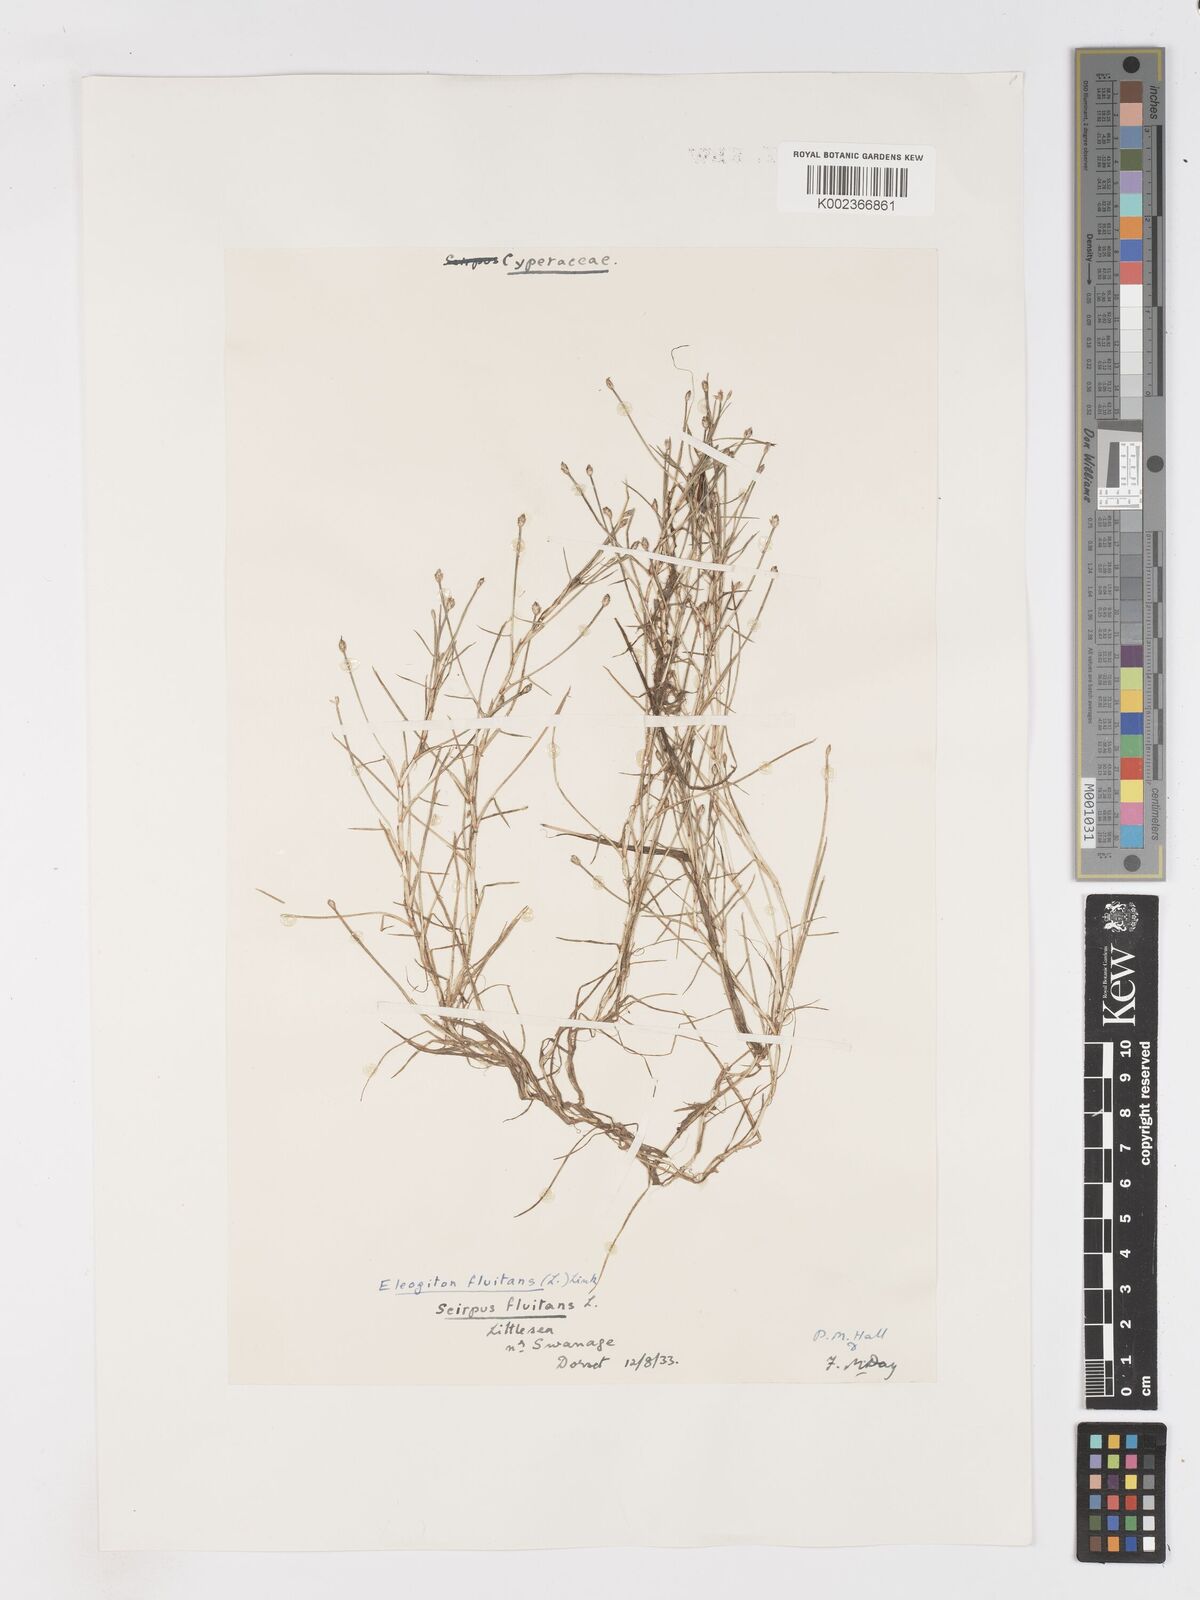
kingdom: Plantae
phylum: Tracheophyta
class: Liliopsida
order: Poales
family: Cyperaceae
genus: Isolepis
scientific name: Isolepis fluitans
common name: Floating club-rush
